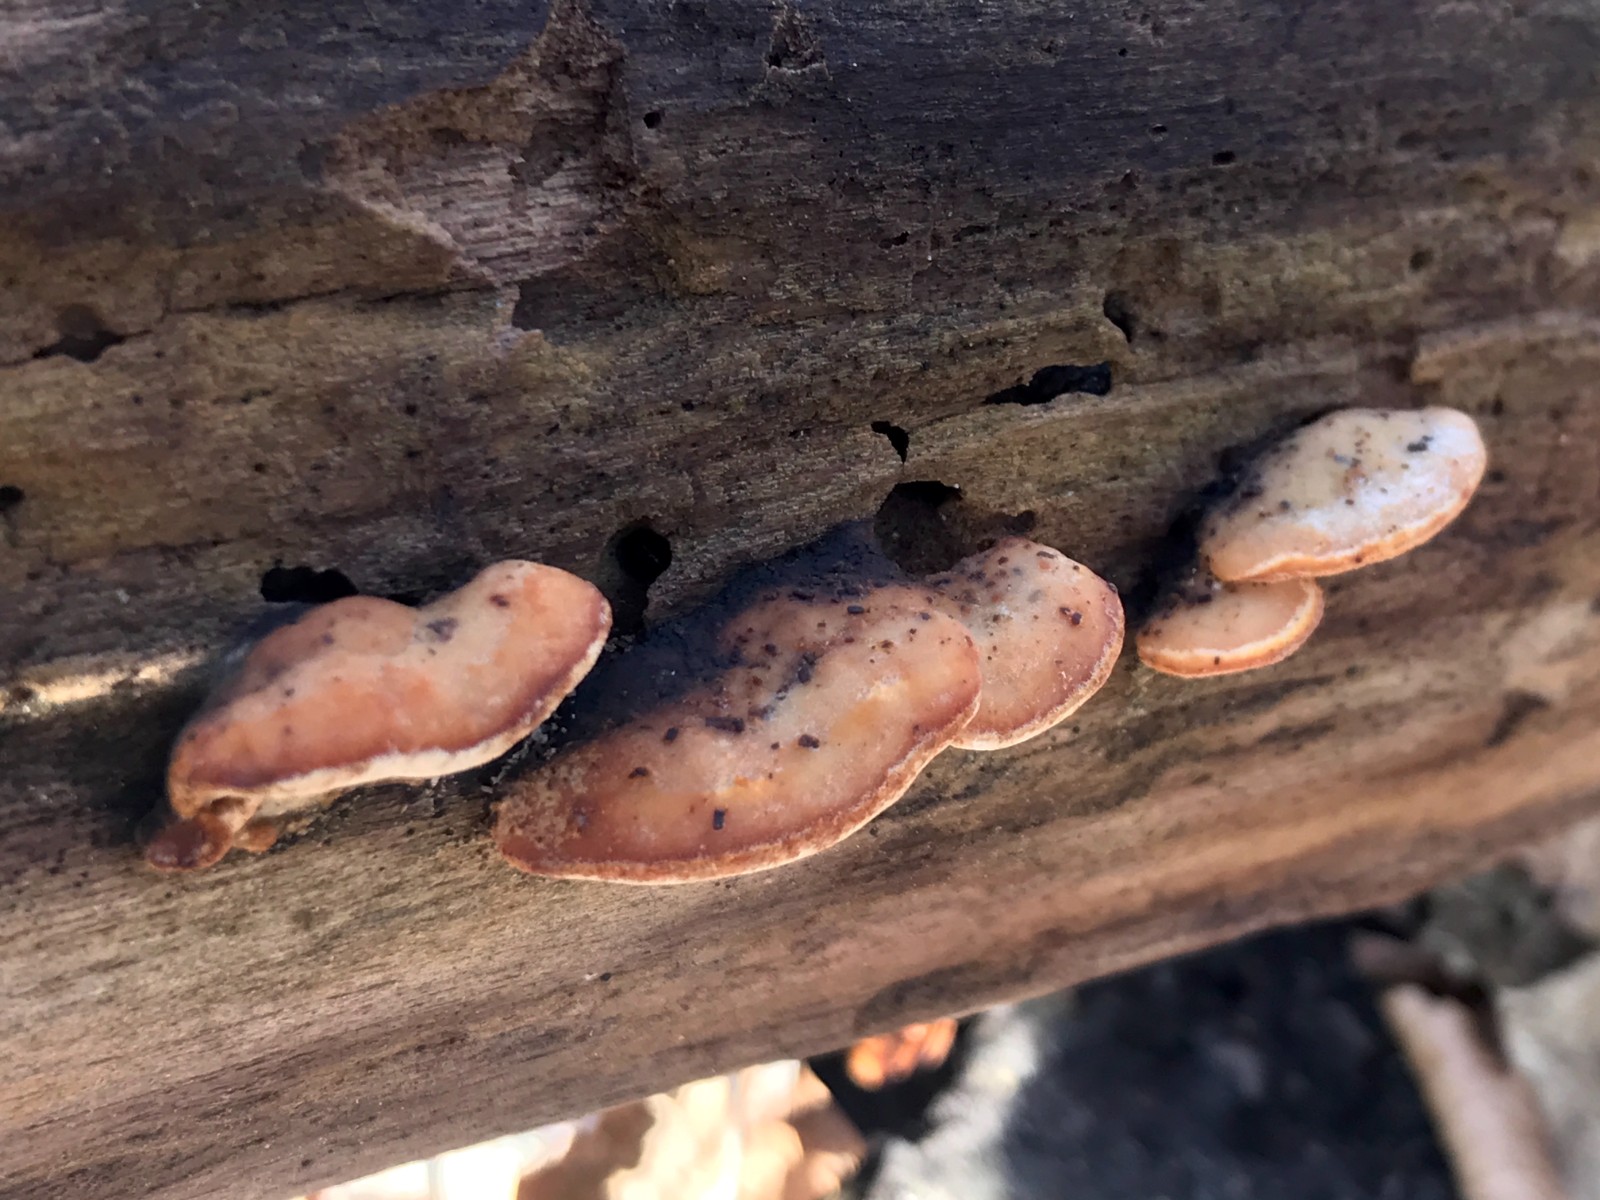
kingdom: Fungi
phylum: Basidiomycota
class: Agaricomycetes
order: Polyporales
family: Incrustoporiaceae
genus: Skeletocutis
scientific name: Skeletocutis nemoralis
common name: stor krystalporesvamp
